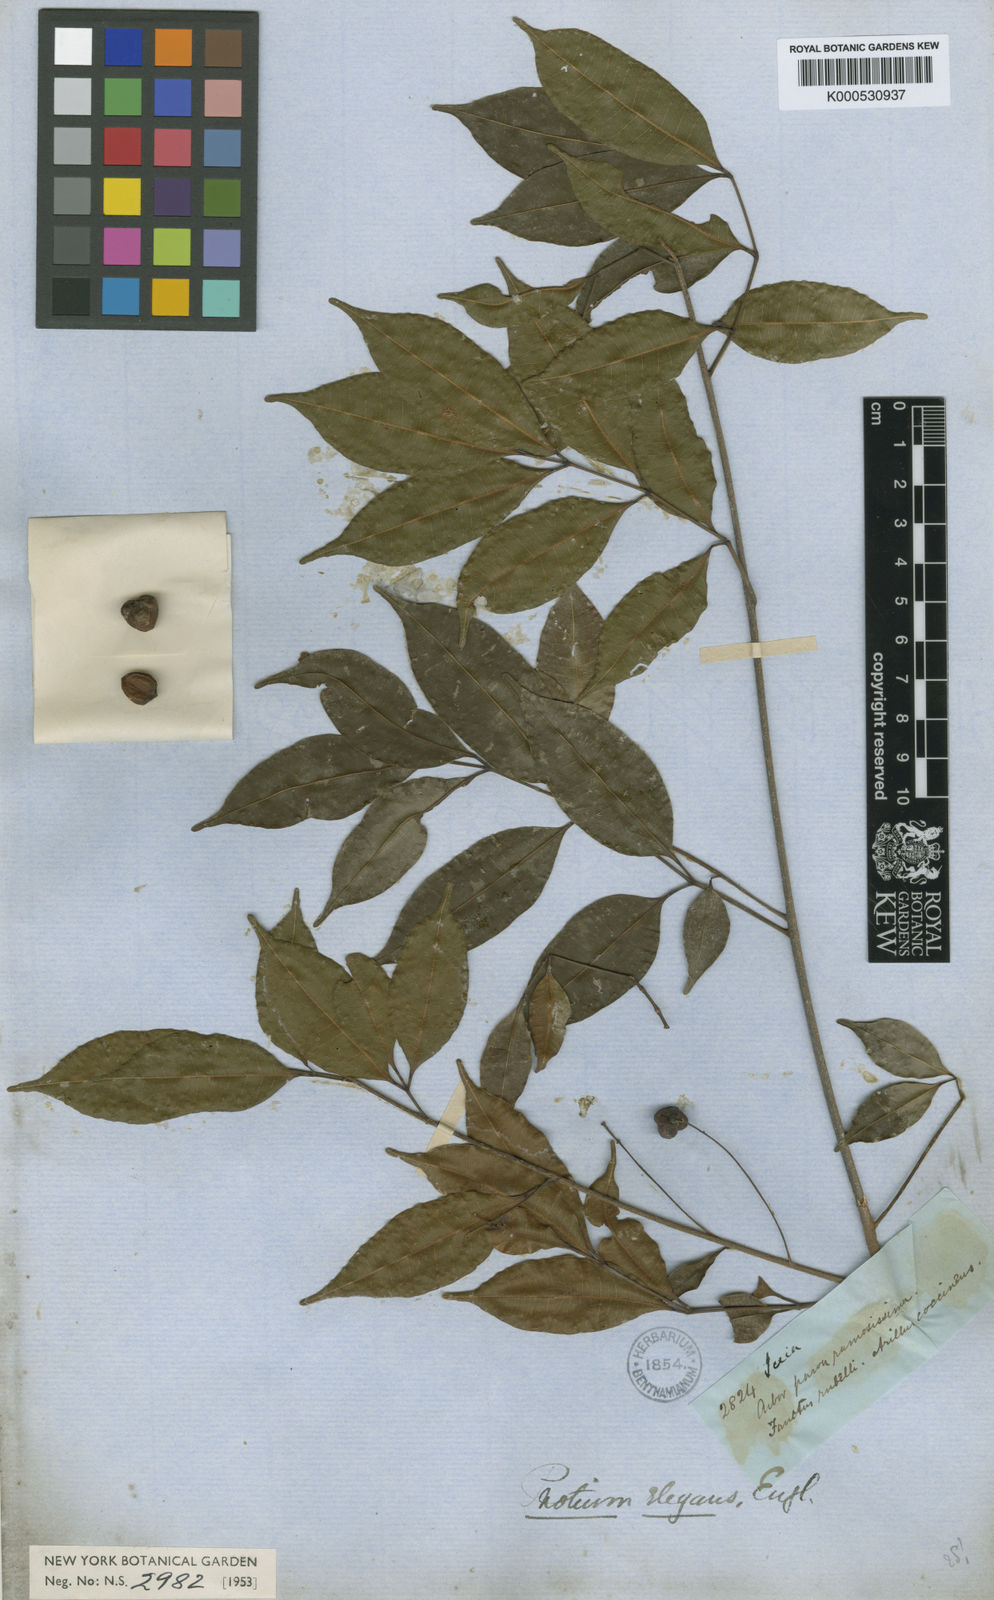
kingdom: Plantae
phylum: Tracheophyta
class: Magnoliopsida
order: Sapindales
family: Burseraceae
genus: Protium
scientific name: Protium elegans
